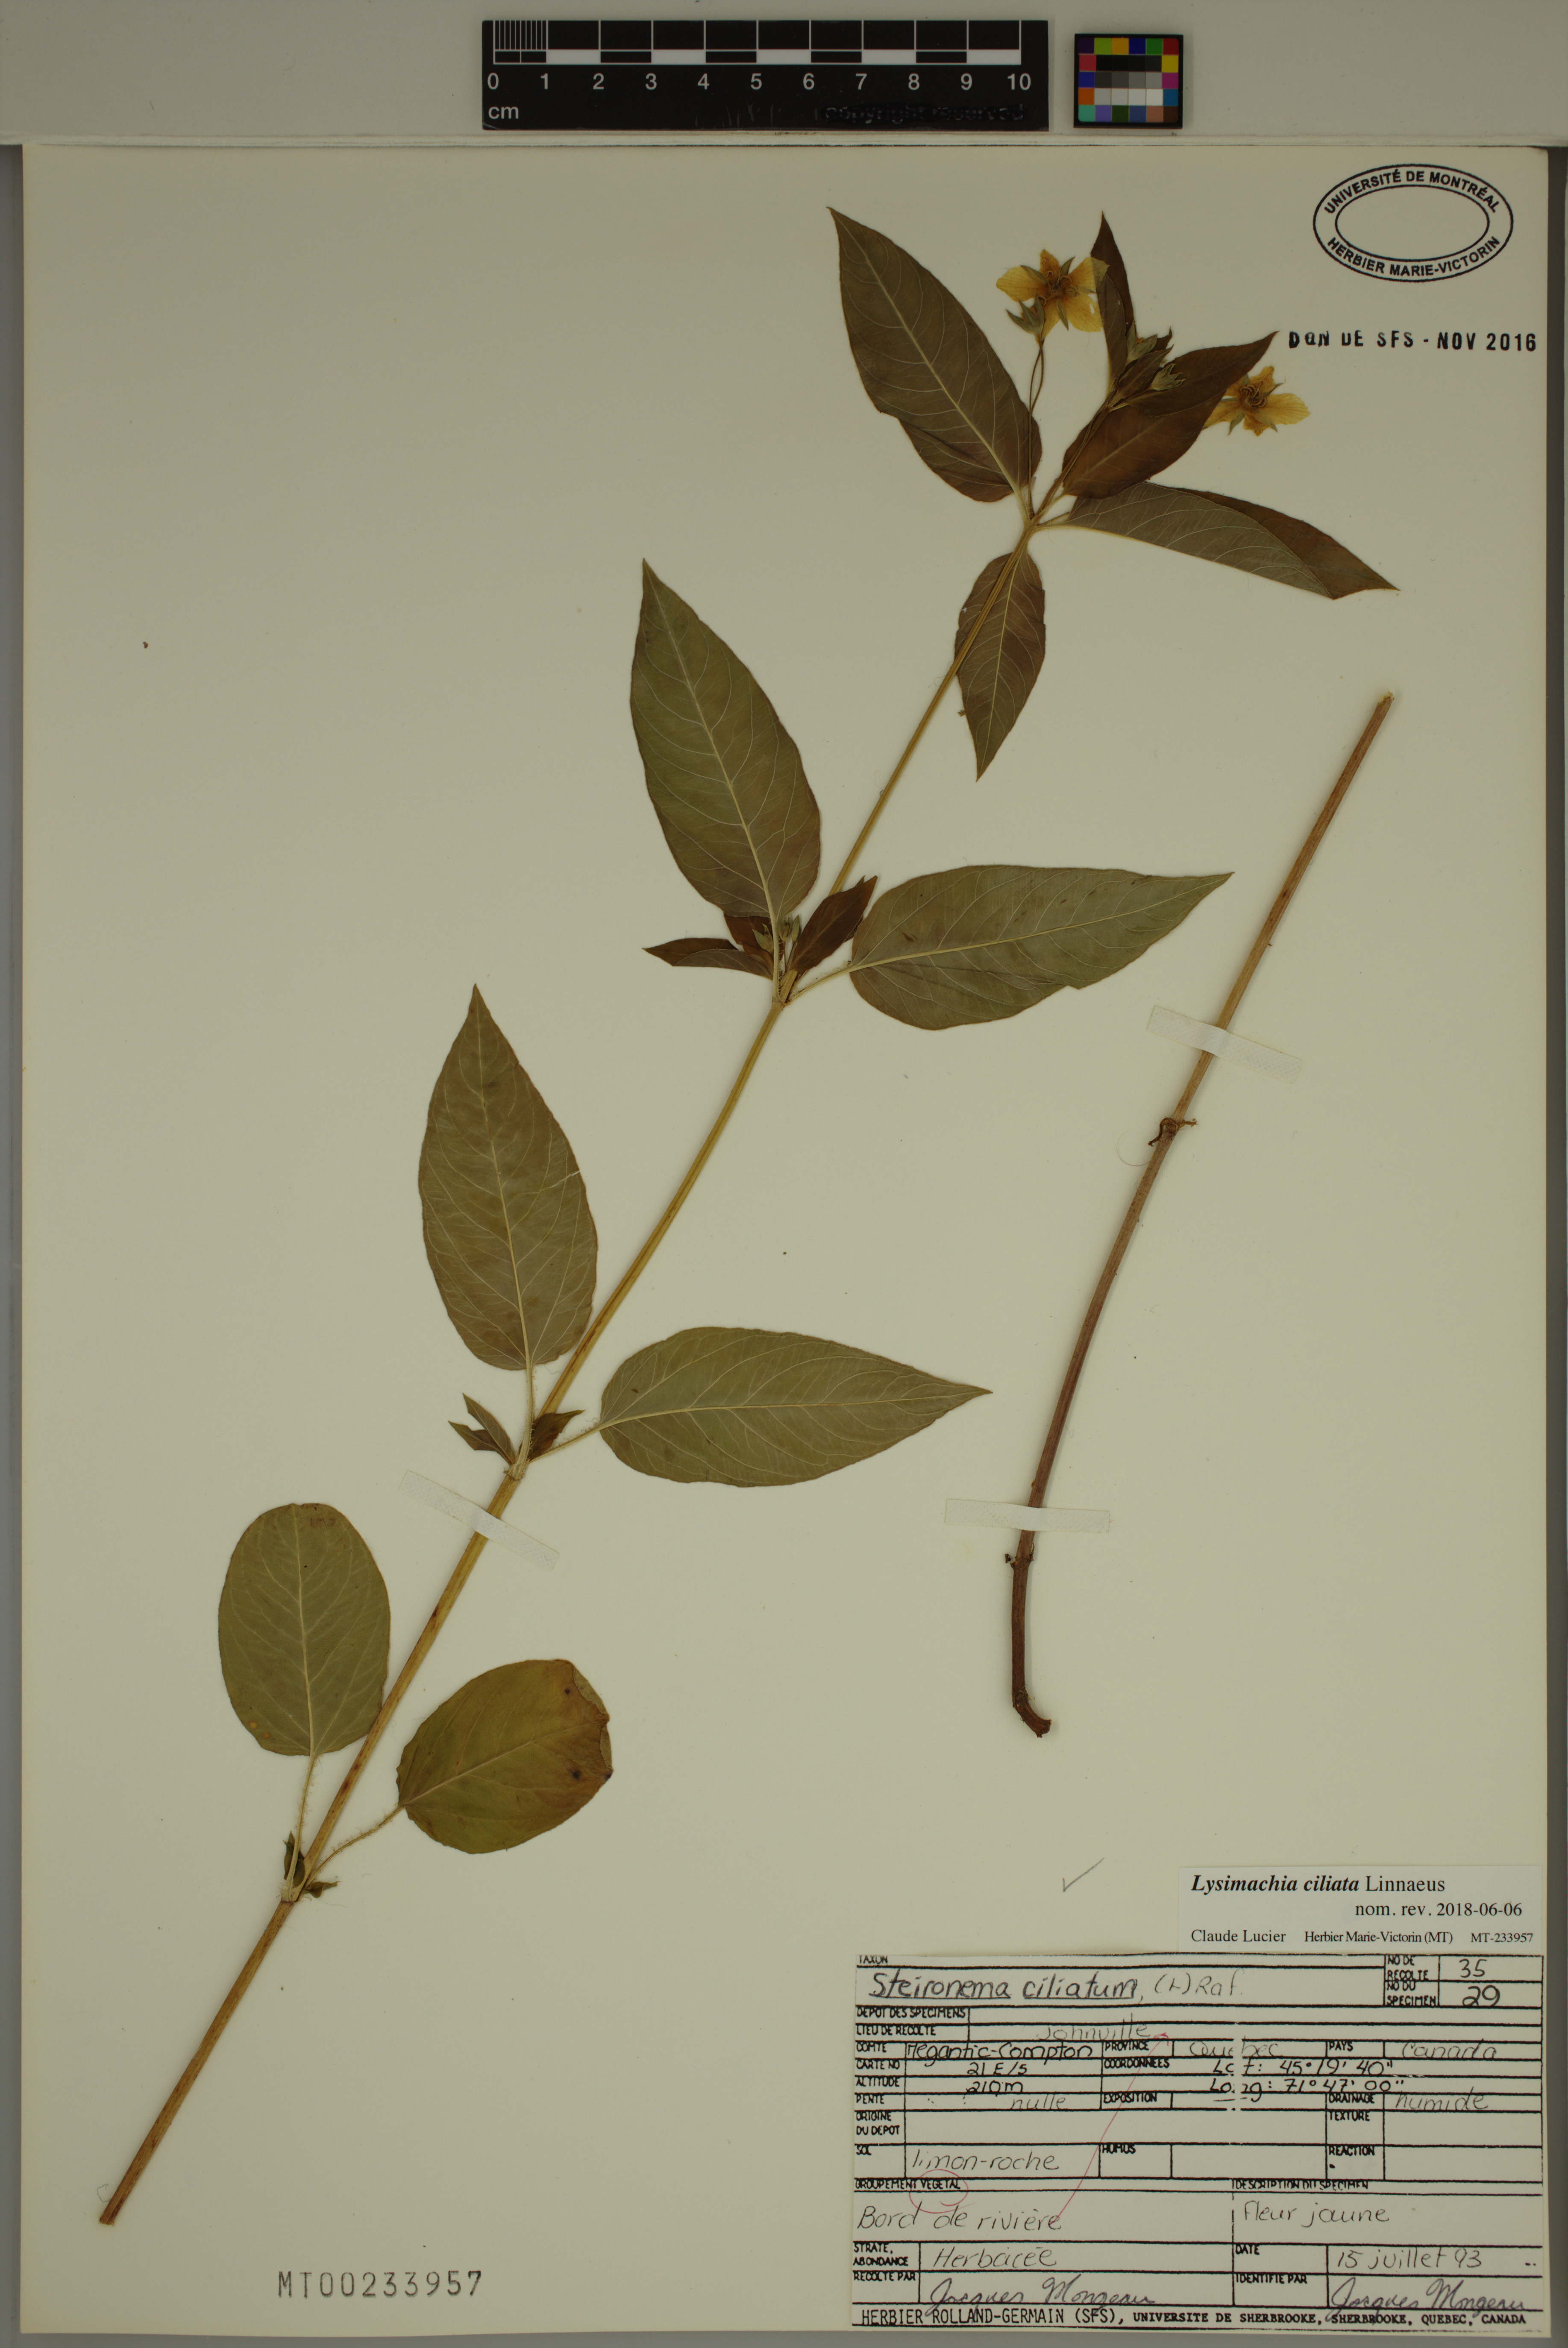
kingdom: Plantae
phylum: Tracheophyta
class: Magnoliopsida
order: Ericales
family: Primulaceae
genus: Lysimachia
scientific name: Lysimachia ciliata
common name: Fringed loosestrife
